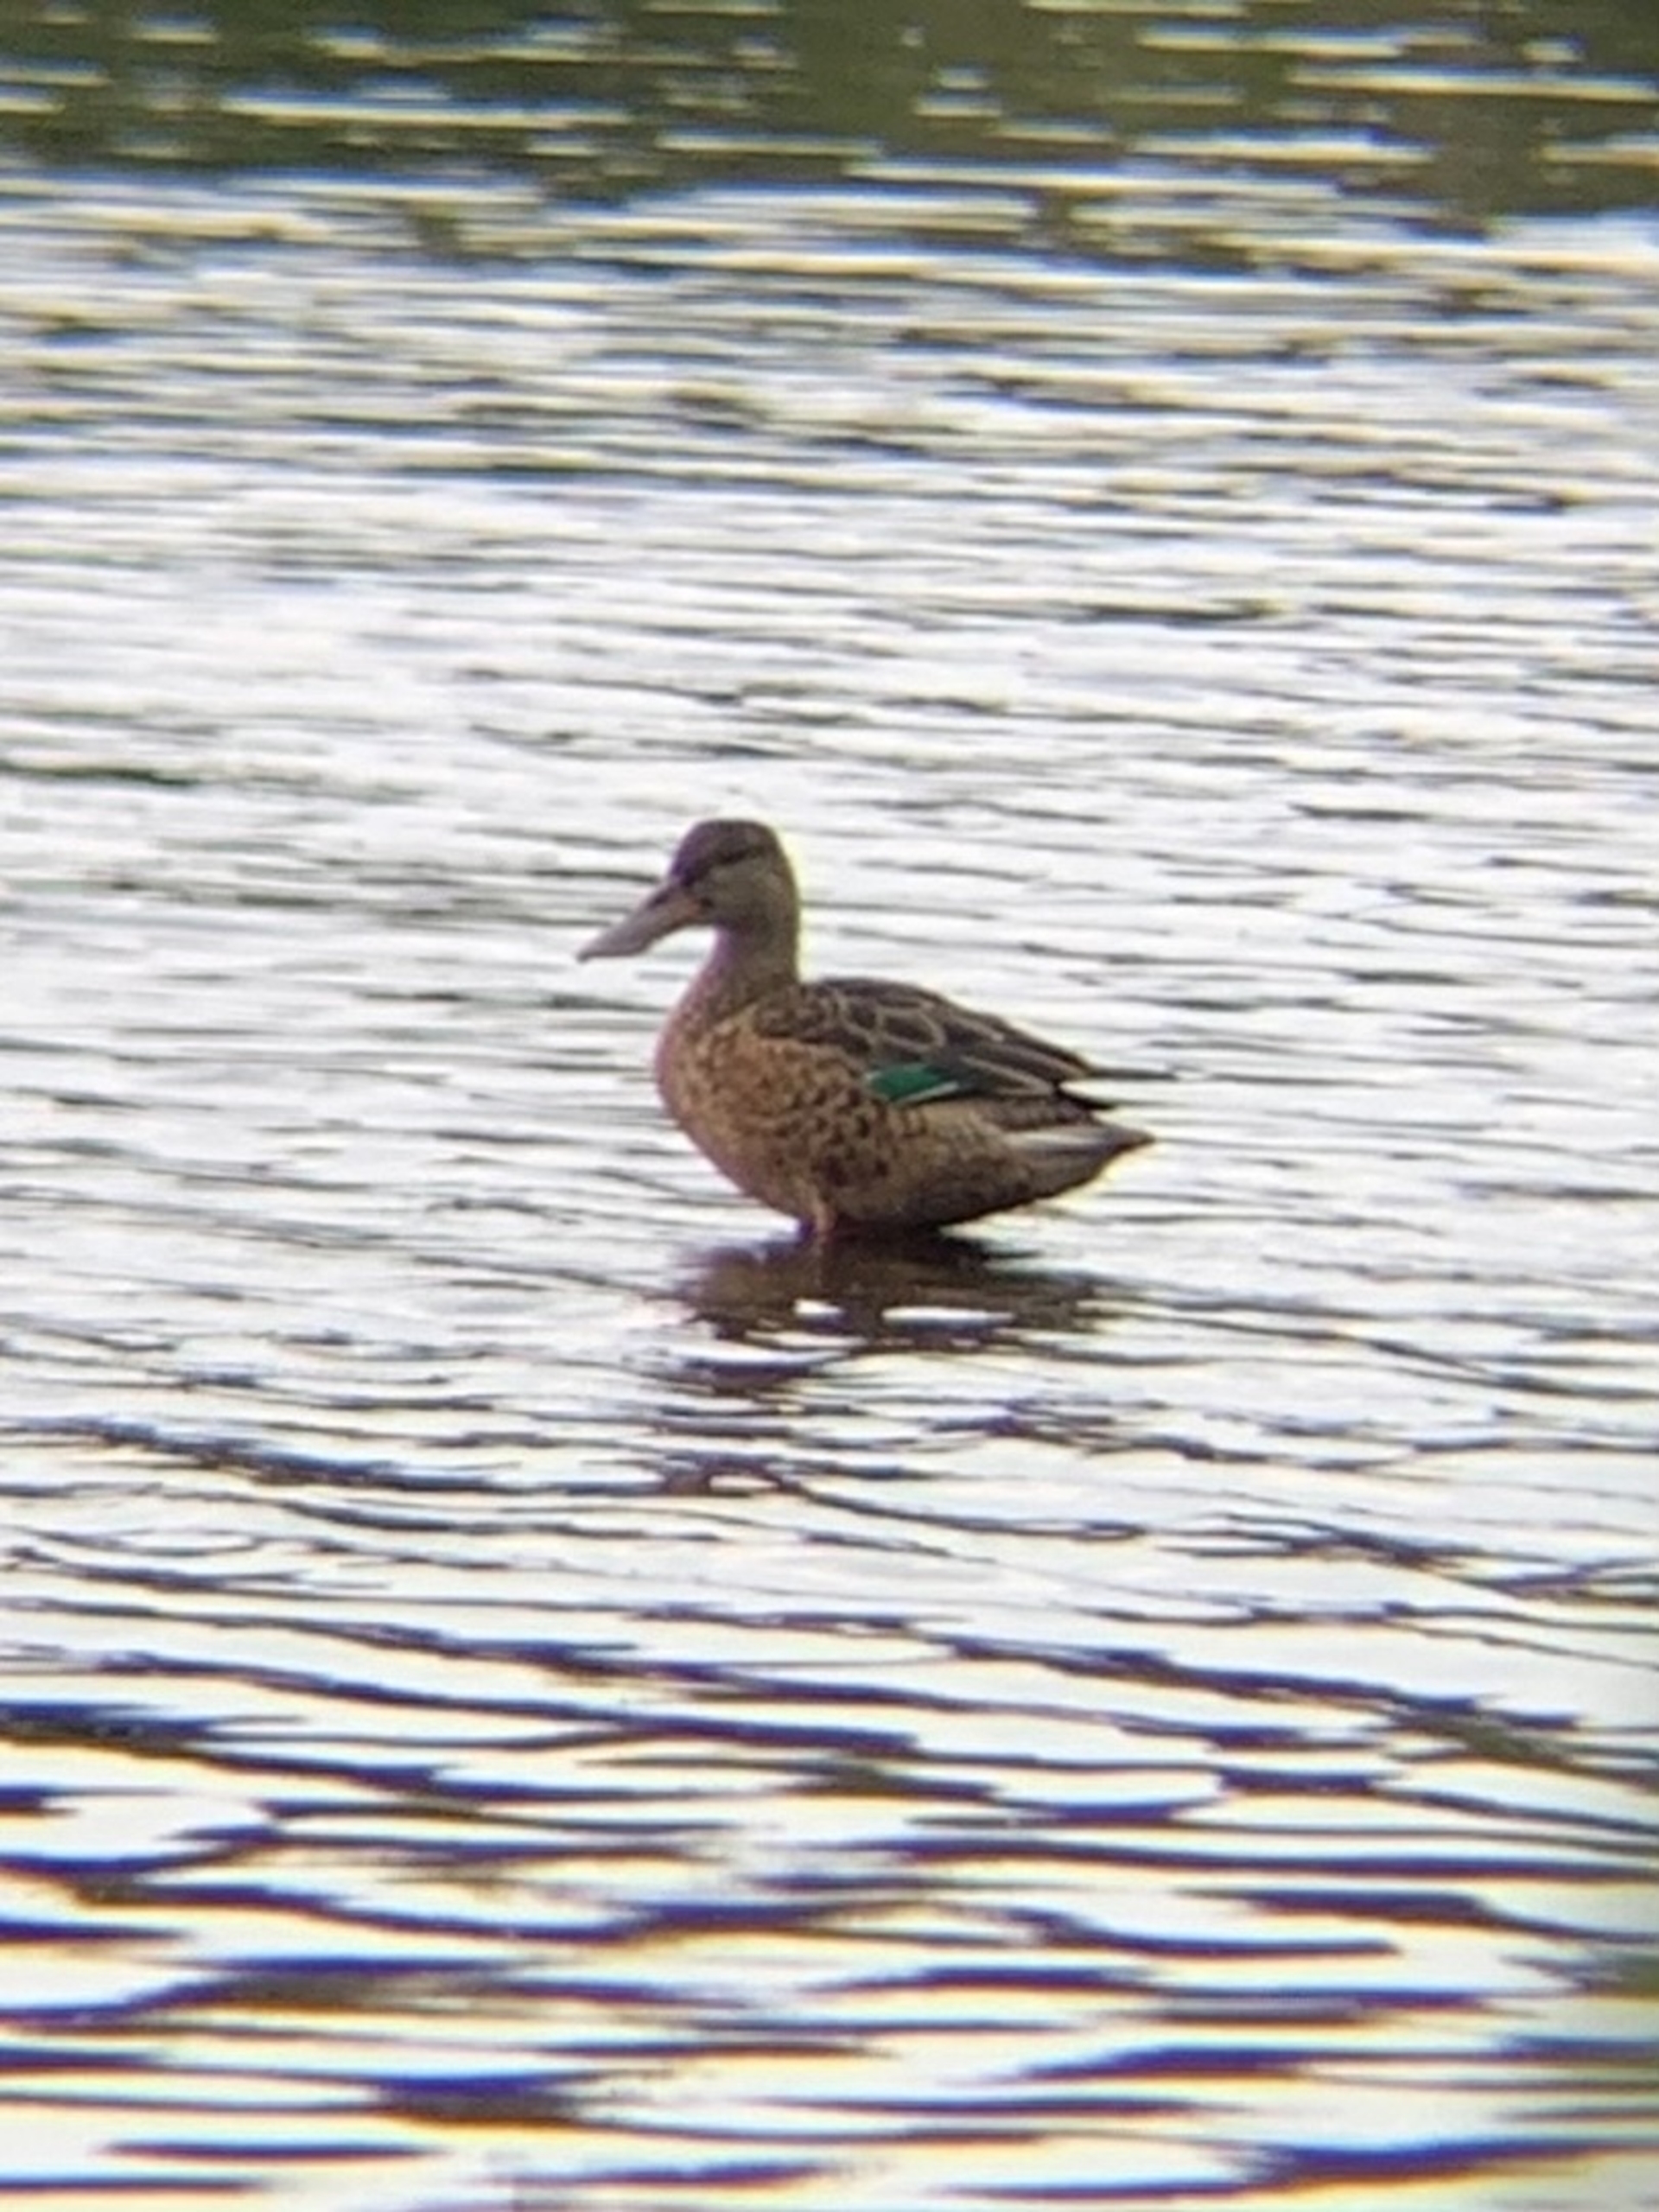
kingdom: Animalia
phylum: Chordata
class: Aves
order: Anseriformes
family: Anatidae
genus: Spatula
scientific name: Spatula clypeata
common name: Skeand
